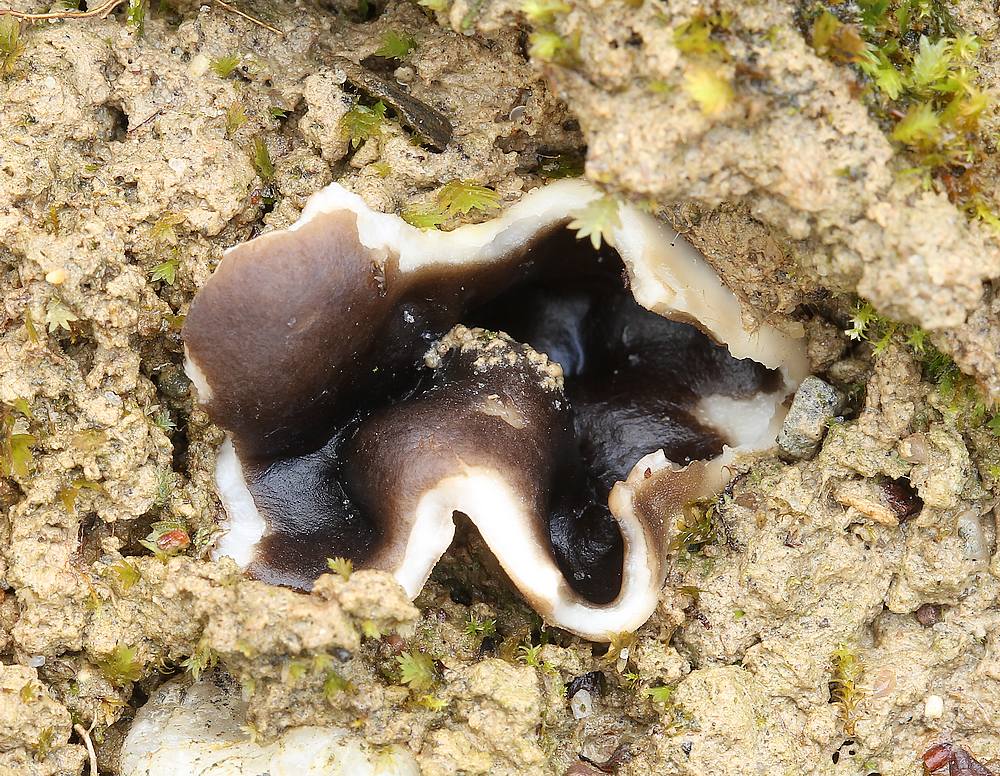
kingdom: Fungi
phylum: Ascomycota
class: Pezizomycetes
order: Pezizales
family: Helvellaceae
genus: Dissingia
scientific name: Dissingia leucomelaena
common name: sorthvid foldhat
